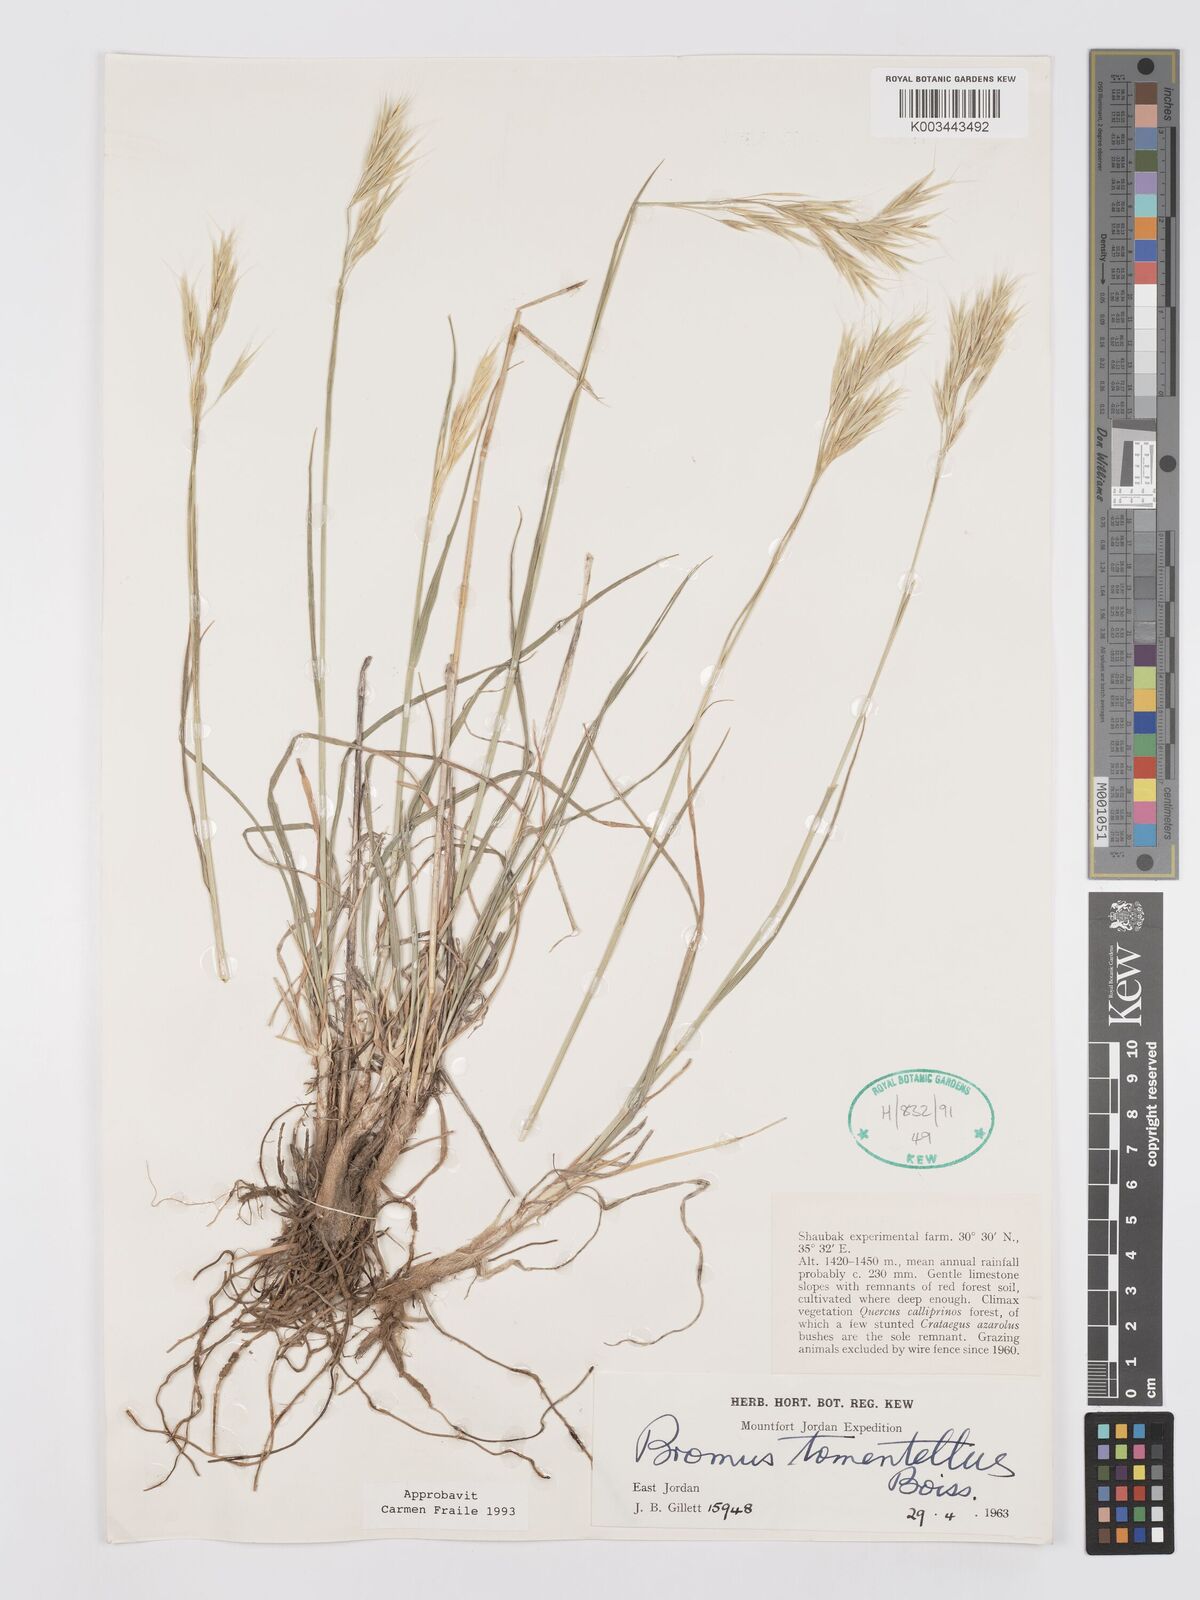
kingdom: Plantae
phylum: Tracheophyta
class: Liliopsida
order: Poales
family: Poaceae
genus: Bromus
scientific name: Bromus tomentellus
